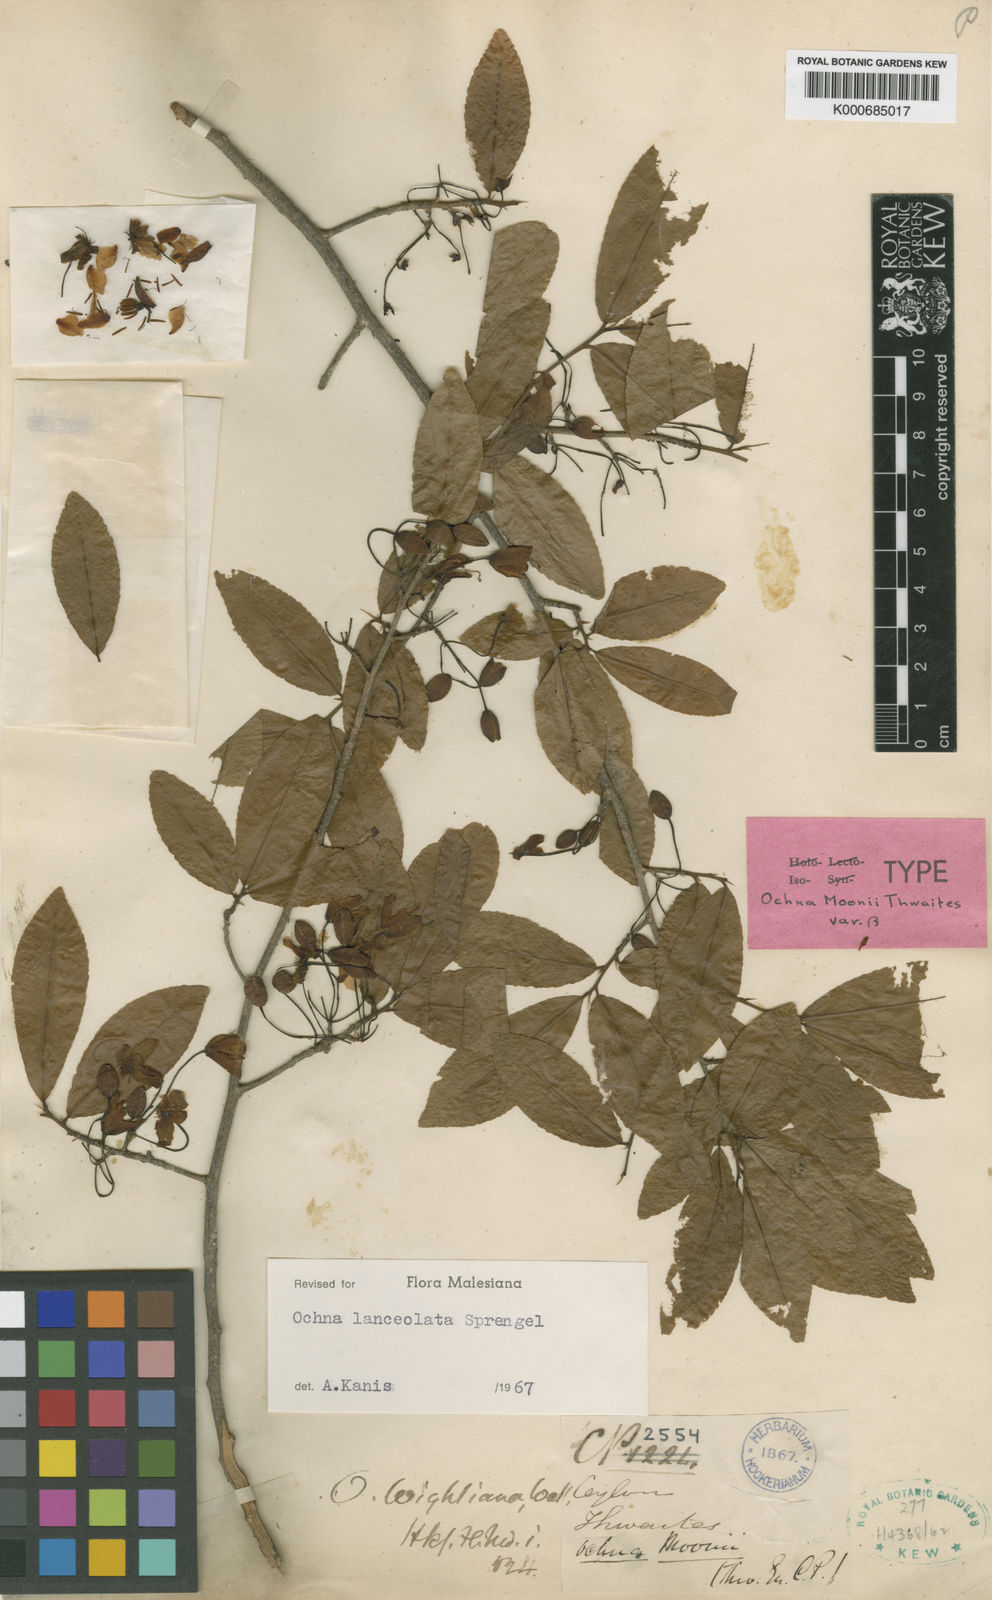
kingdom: Plantae
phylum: Tracheophyta
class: Magnoliopsida
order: Malpighiales
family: Ochnaceae
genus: Ochna
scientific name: Ochna lanceolata
